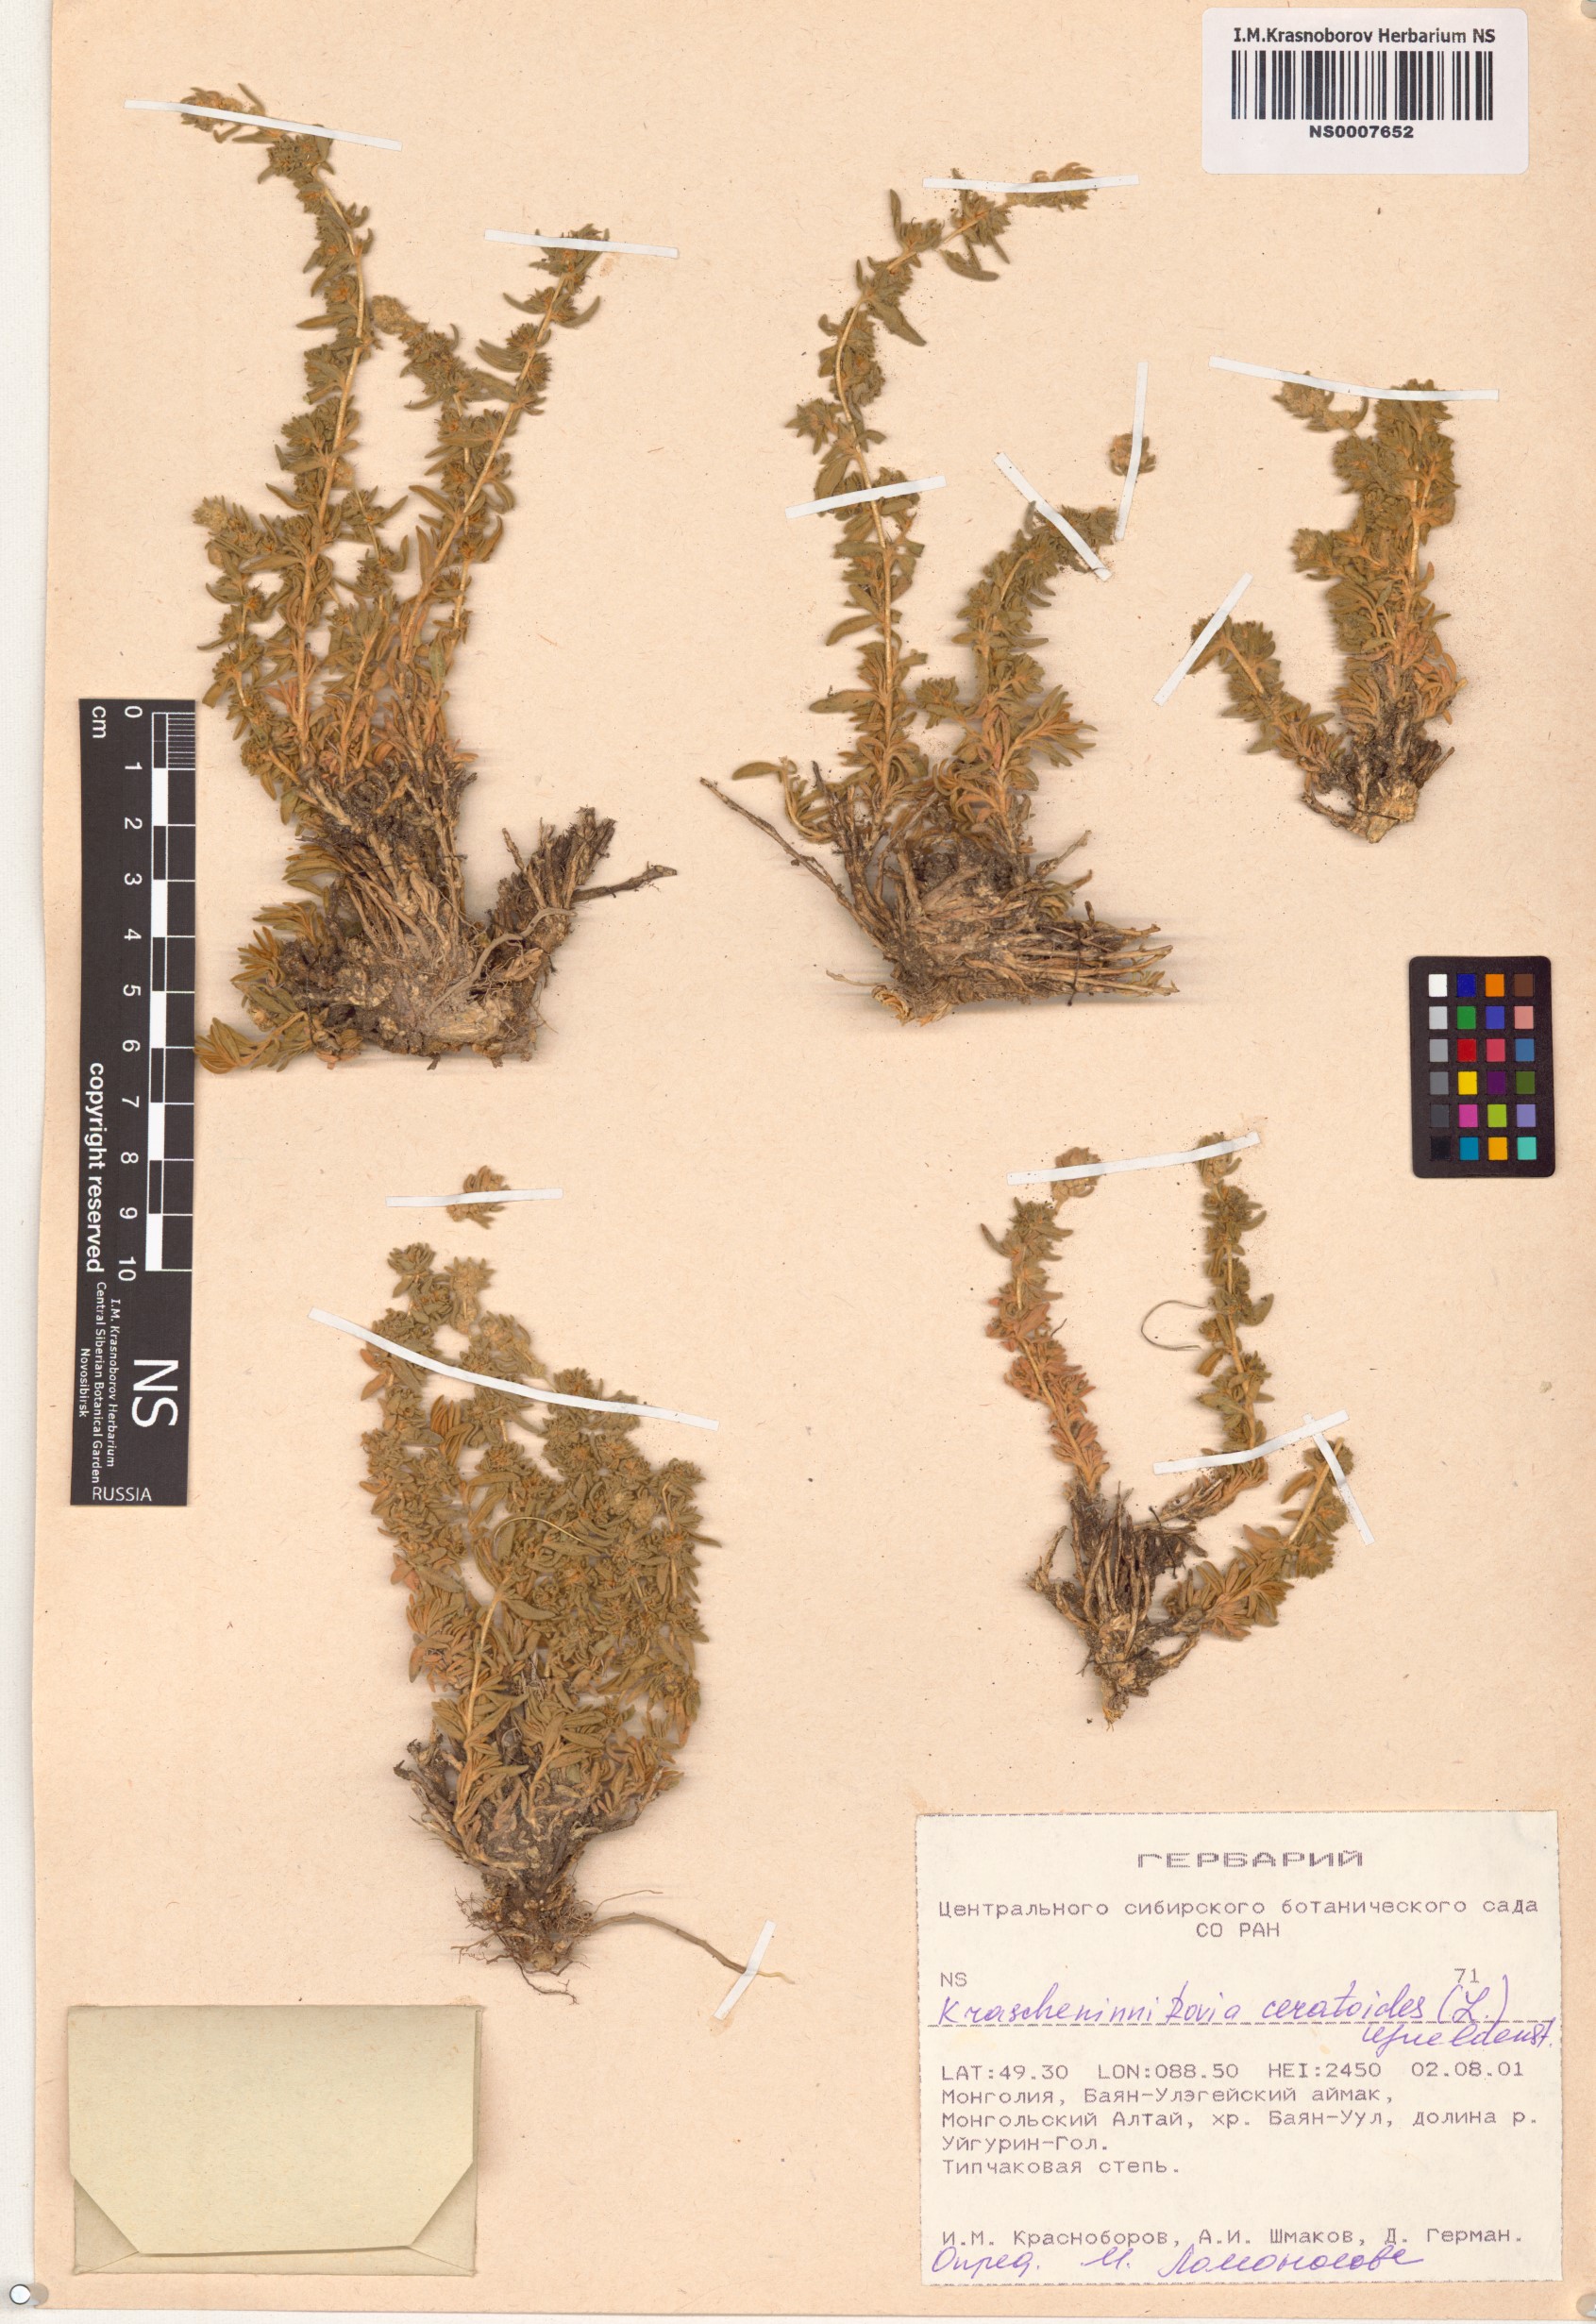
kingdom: Plantae
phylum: Tracheophyta
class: Magnoliopsida
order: Caryophyllales
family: Amaranthaceae
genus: Krascheninnikovia
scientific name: Krascheninnikovia ceratoides
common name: Pamirian winterfat
